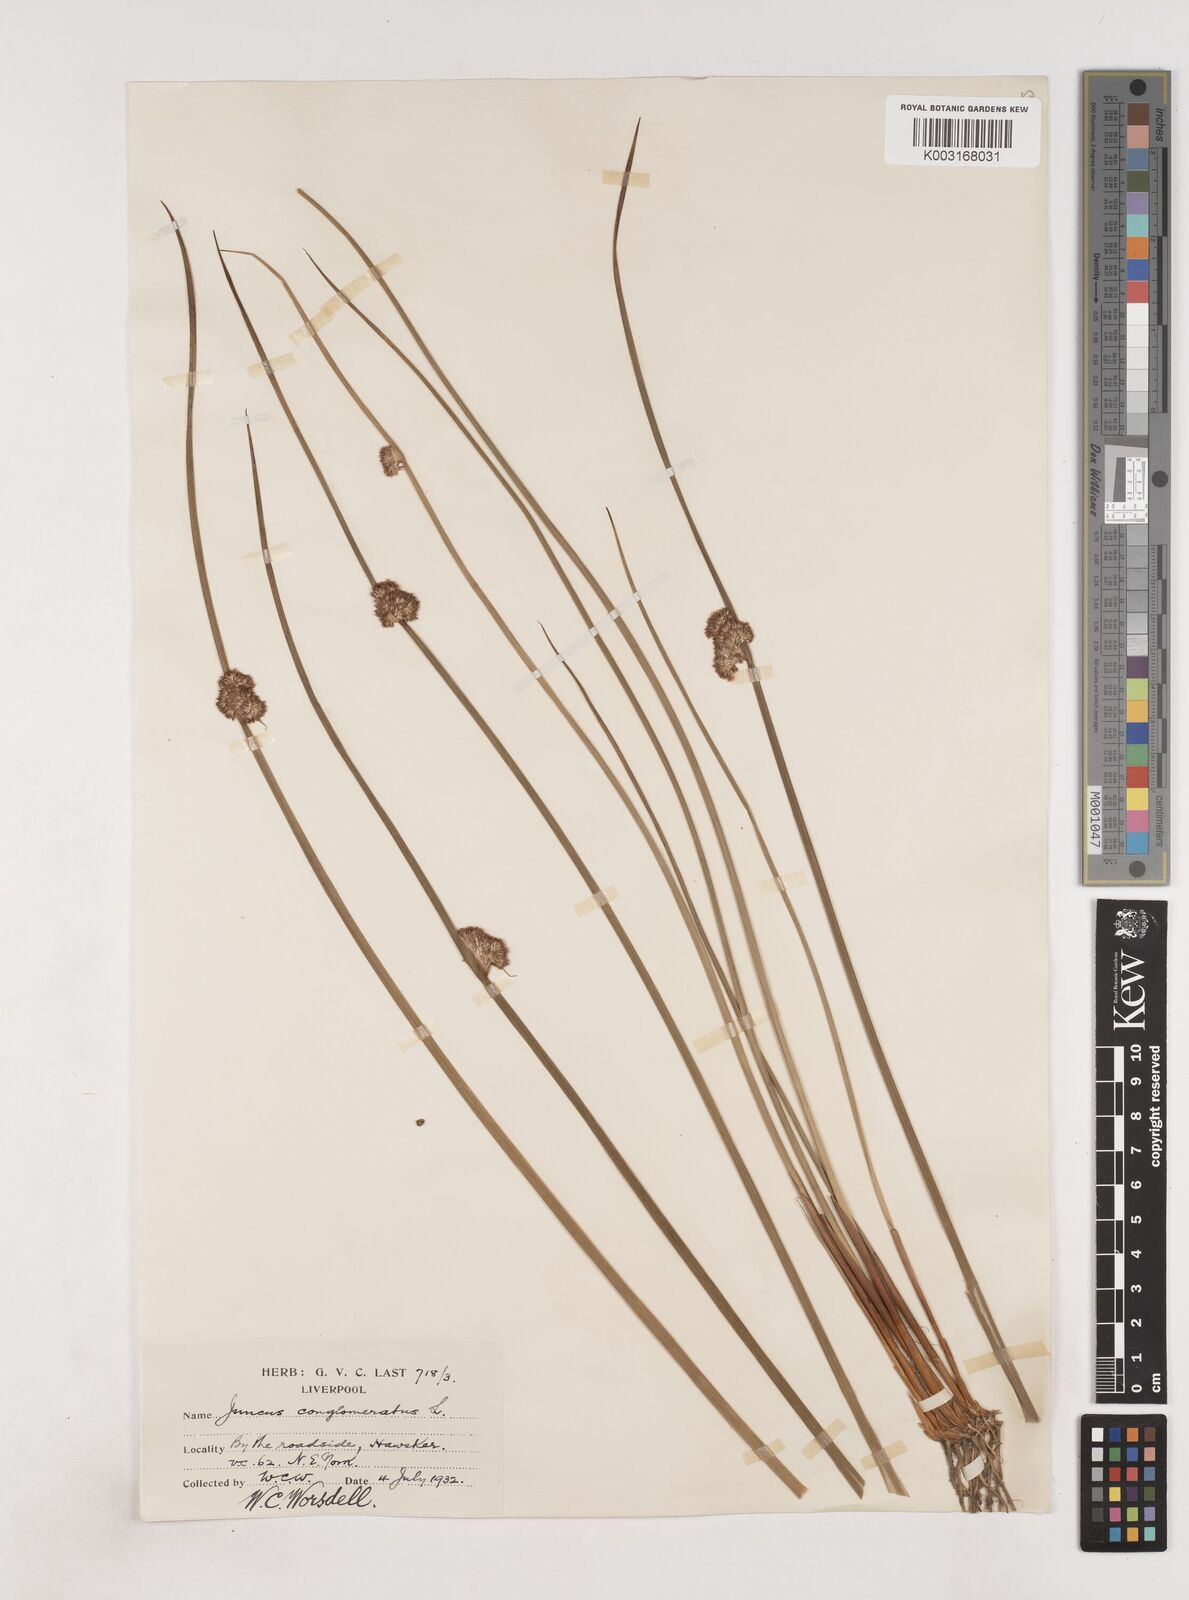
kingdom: Plantae
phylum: Tracheophyta
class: Liliopsida
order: Poales
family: Juncaceae
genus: Juncus
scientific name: Juncus conglomeratus
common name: Compact rush
